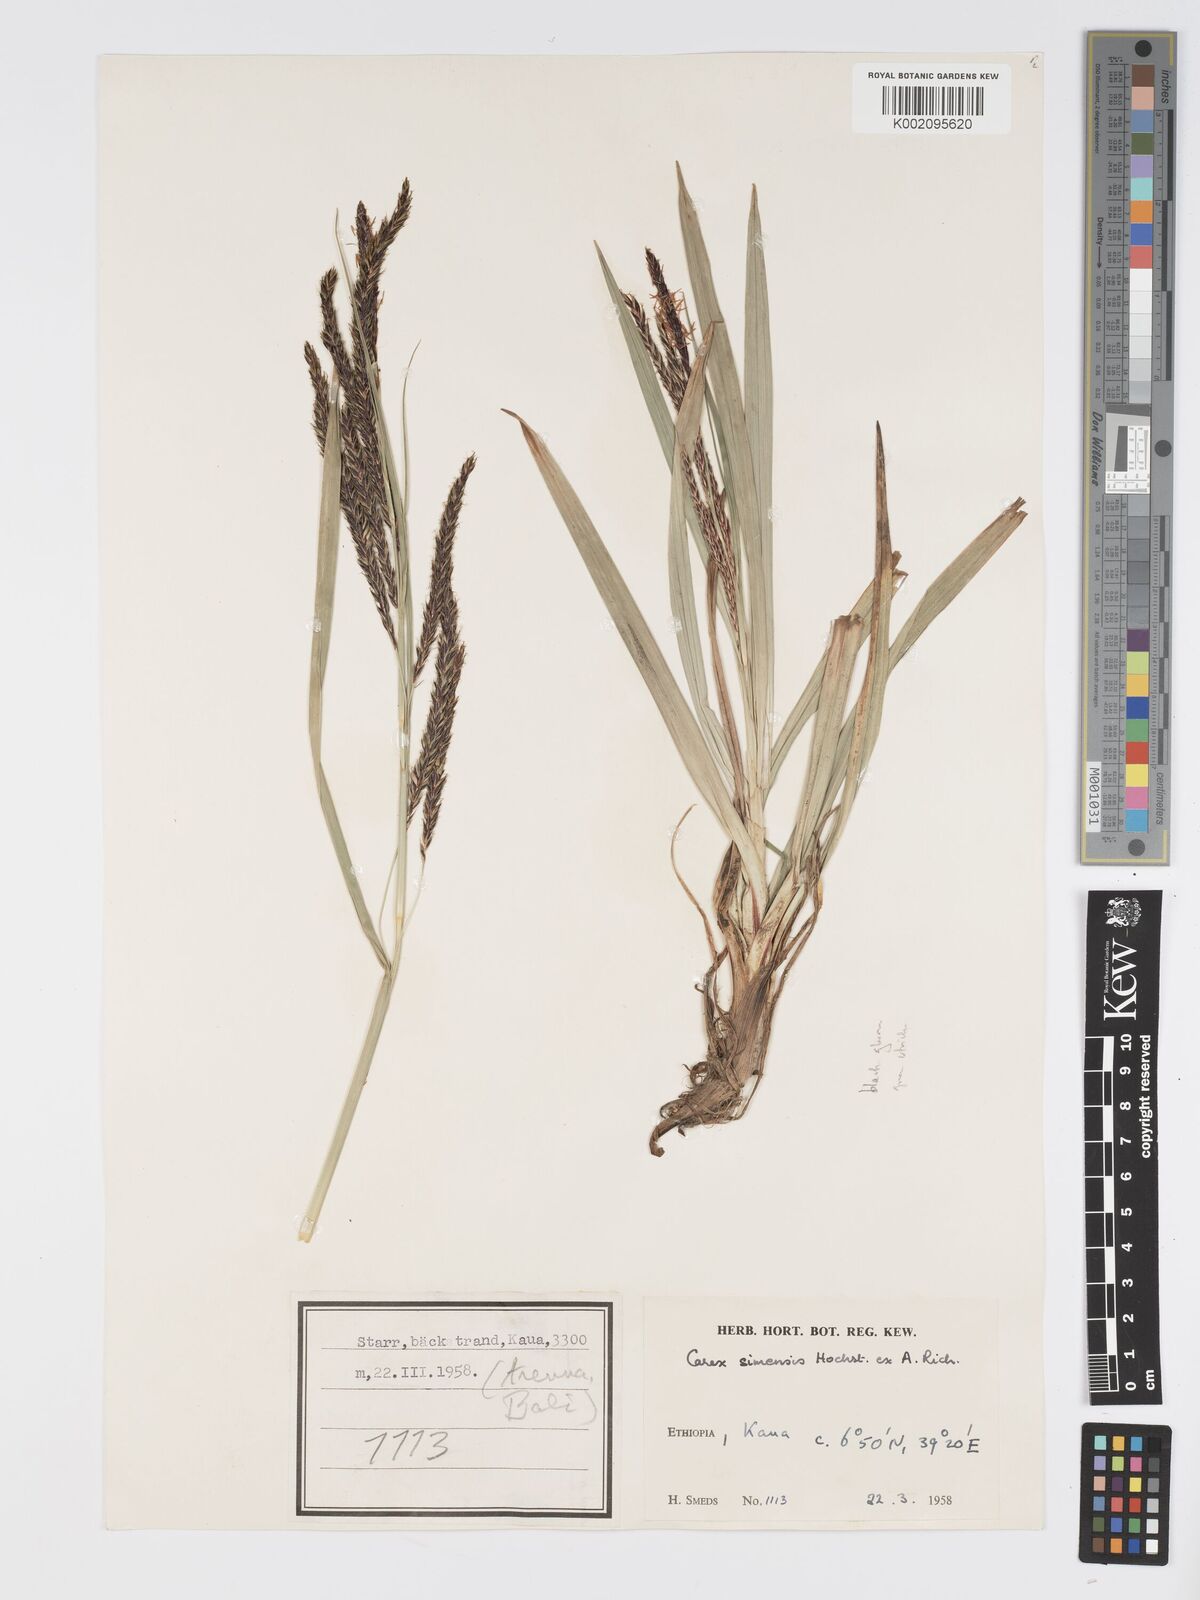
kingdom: Plantae
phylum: Tracheophyta
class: Liliopsida
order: Poales
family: Cyperaceae
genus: Carex
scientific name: Carex simensis
